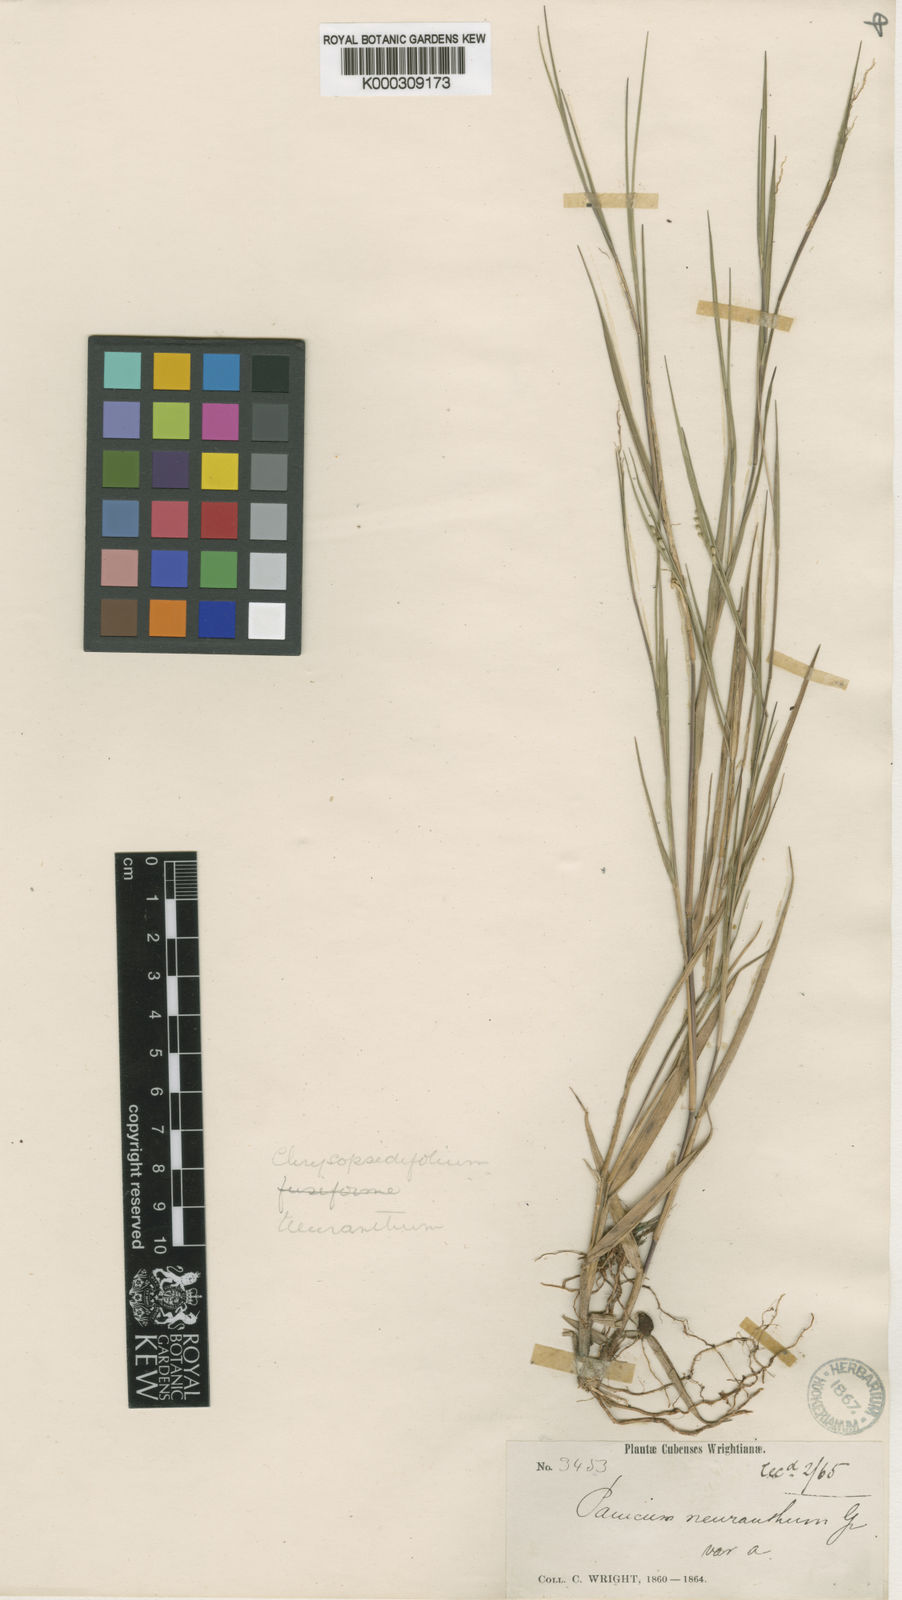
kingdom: Plantae
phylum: Tracheophyta
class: Liliopsida
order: Poales
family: Poaceae
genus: Dichanthelium
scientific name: Dichanthelium aciculare
